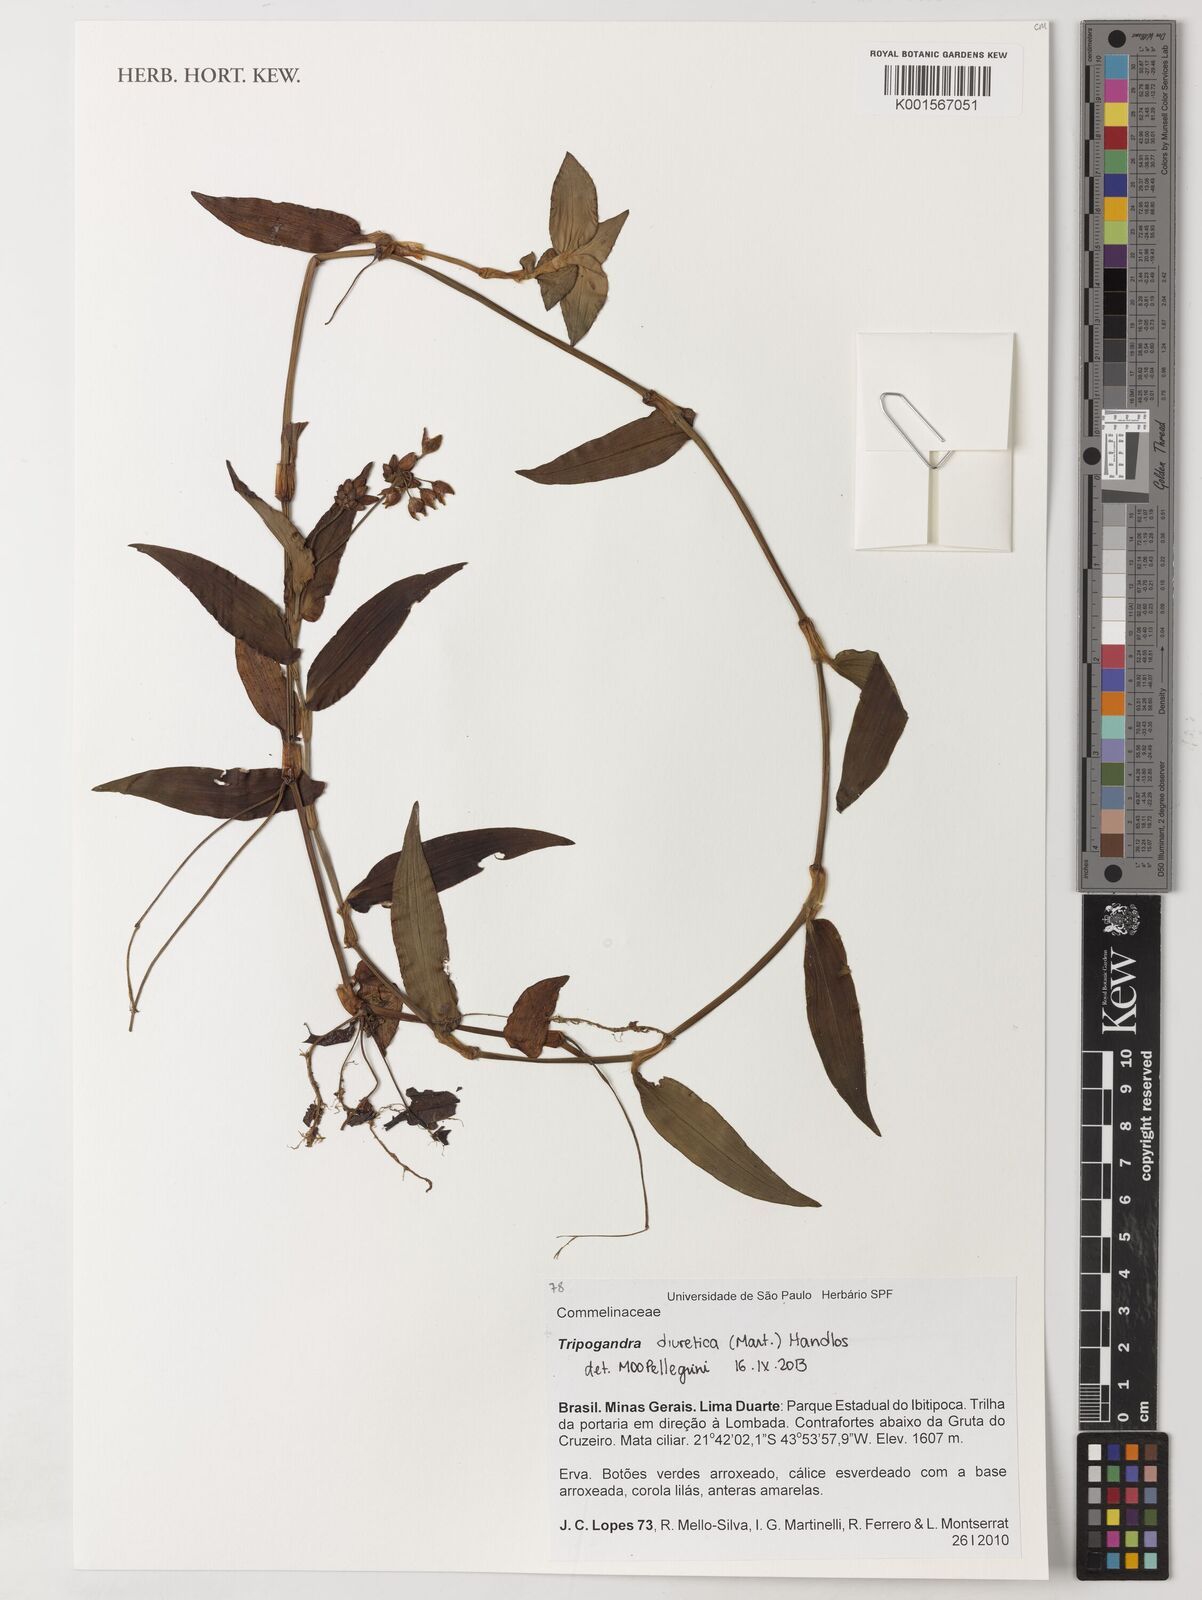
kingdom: Plantae
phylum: Tracheophyta
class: Liliopsida
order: Commelinales
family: Commelinaceae
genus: Callisia
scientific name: Callisia diuretica
